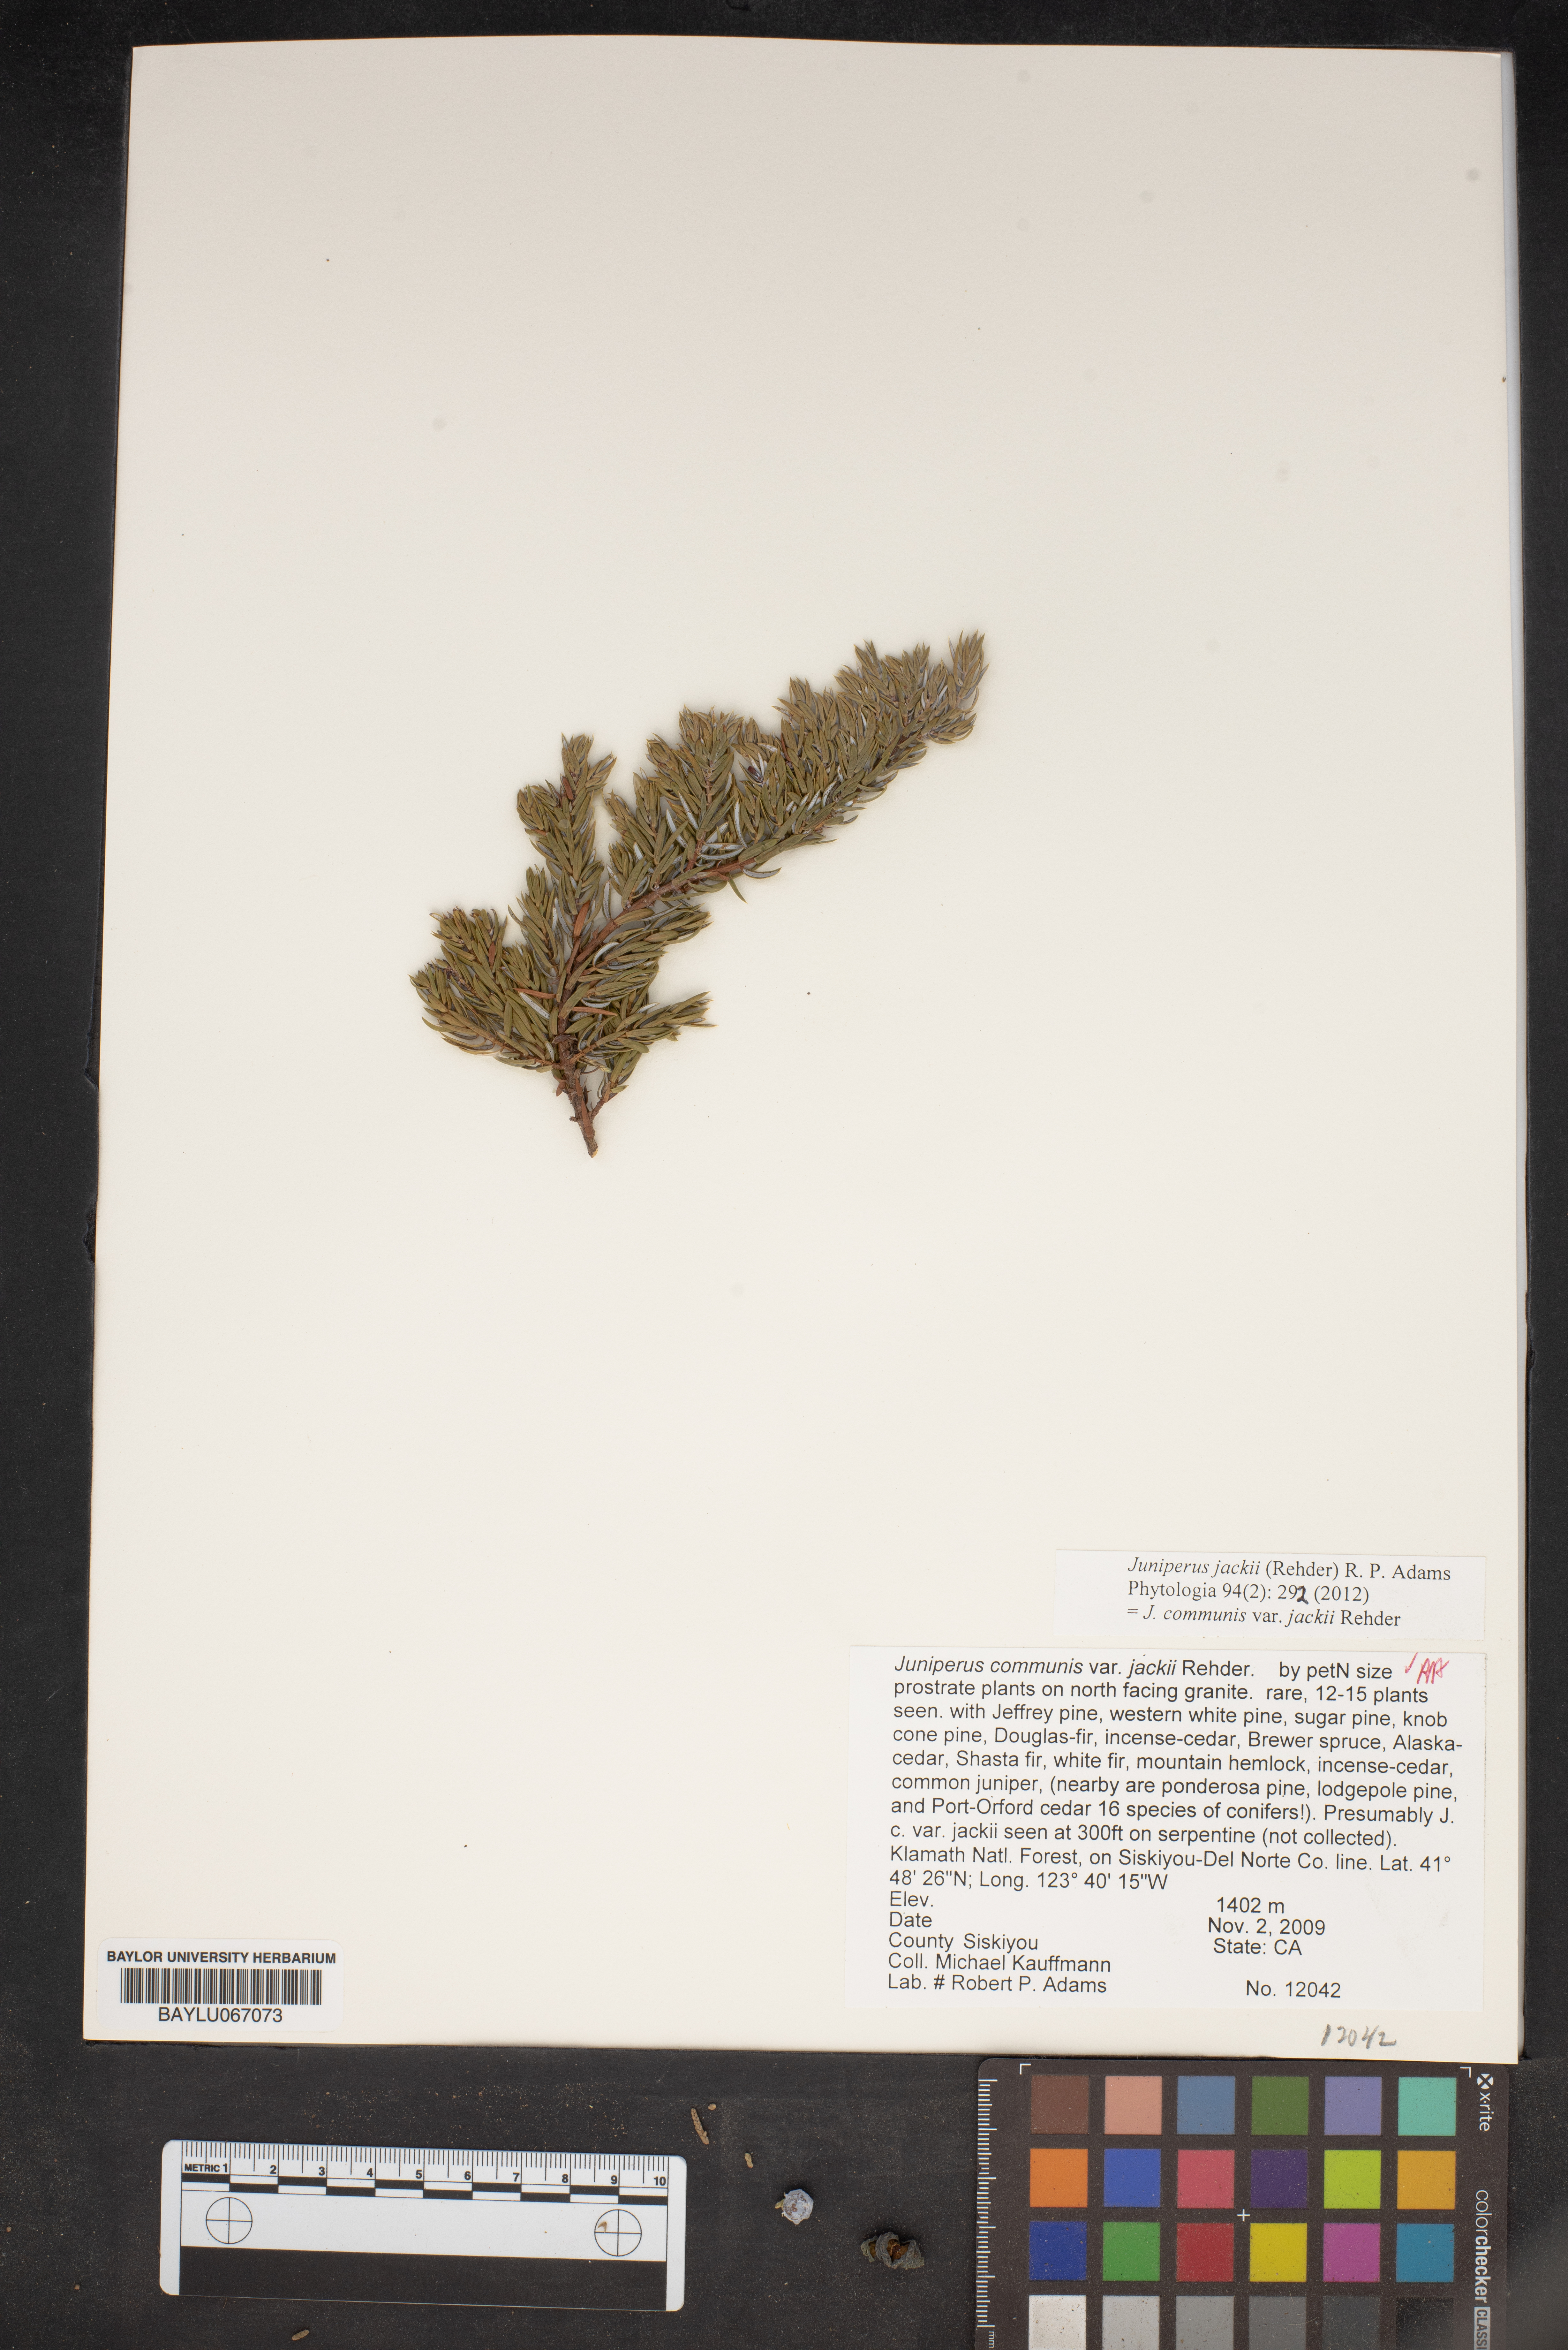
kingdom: Plantae
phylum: Tracheophyta
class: Pinopsida
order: Pinales
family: Cupressaceae
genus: Juniperus
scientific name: Juniperus communis
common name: Common juniper
